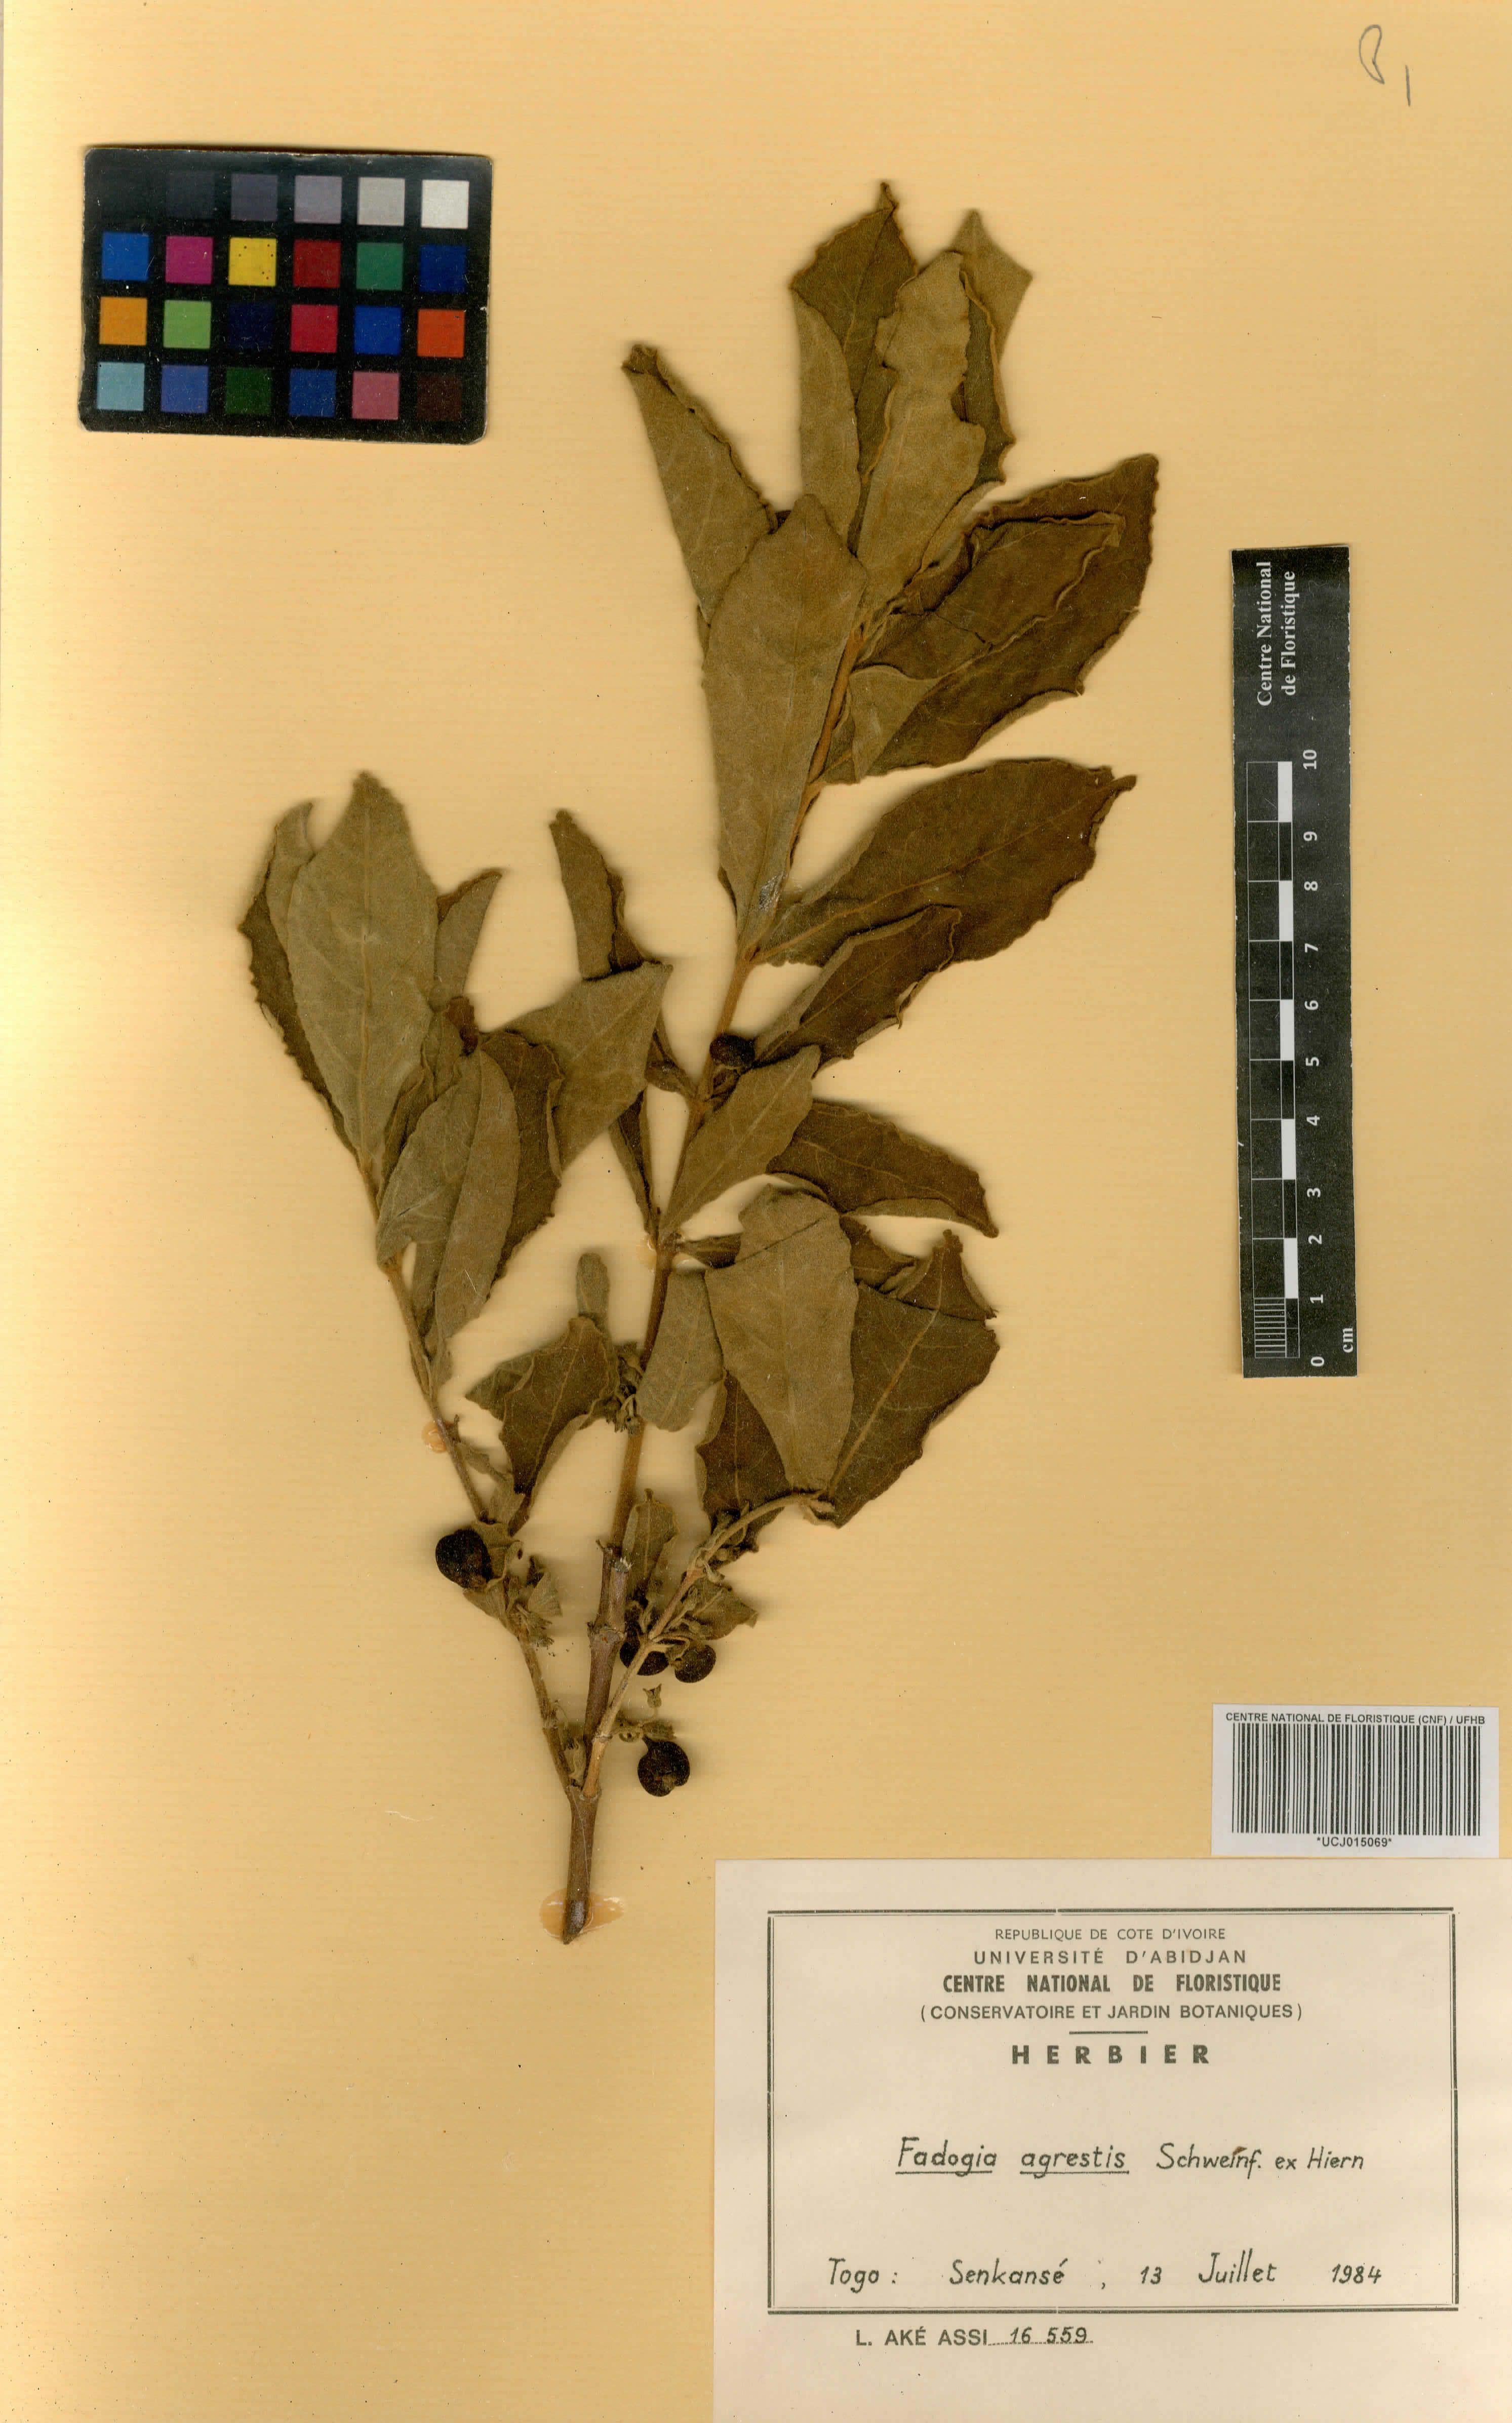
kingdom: Plantae
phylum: Tracheophyta
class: Magnoliopsida
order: Gentianales
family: Rubiaceae
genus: Vangueria
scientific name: Vangueria agrestis
